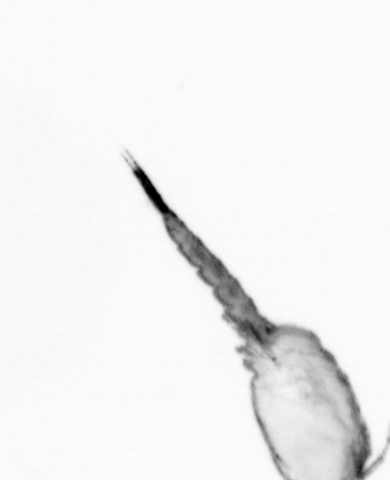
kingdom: Animalia
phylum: Annelida
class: Polychaeta
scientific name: Polychaeta
